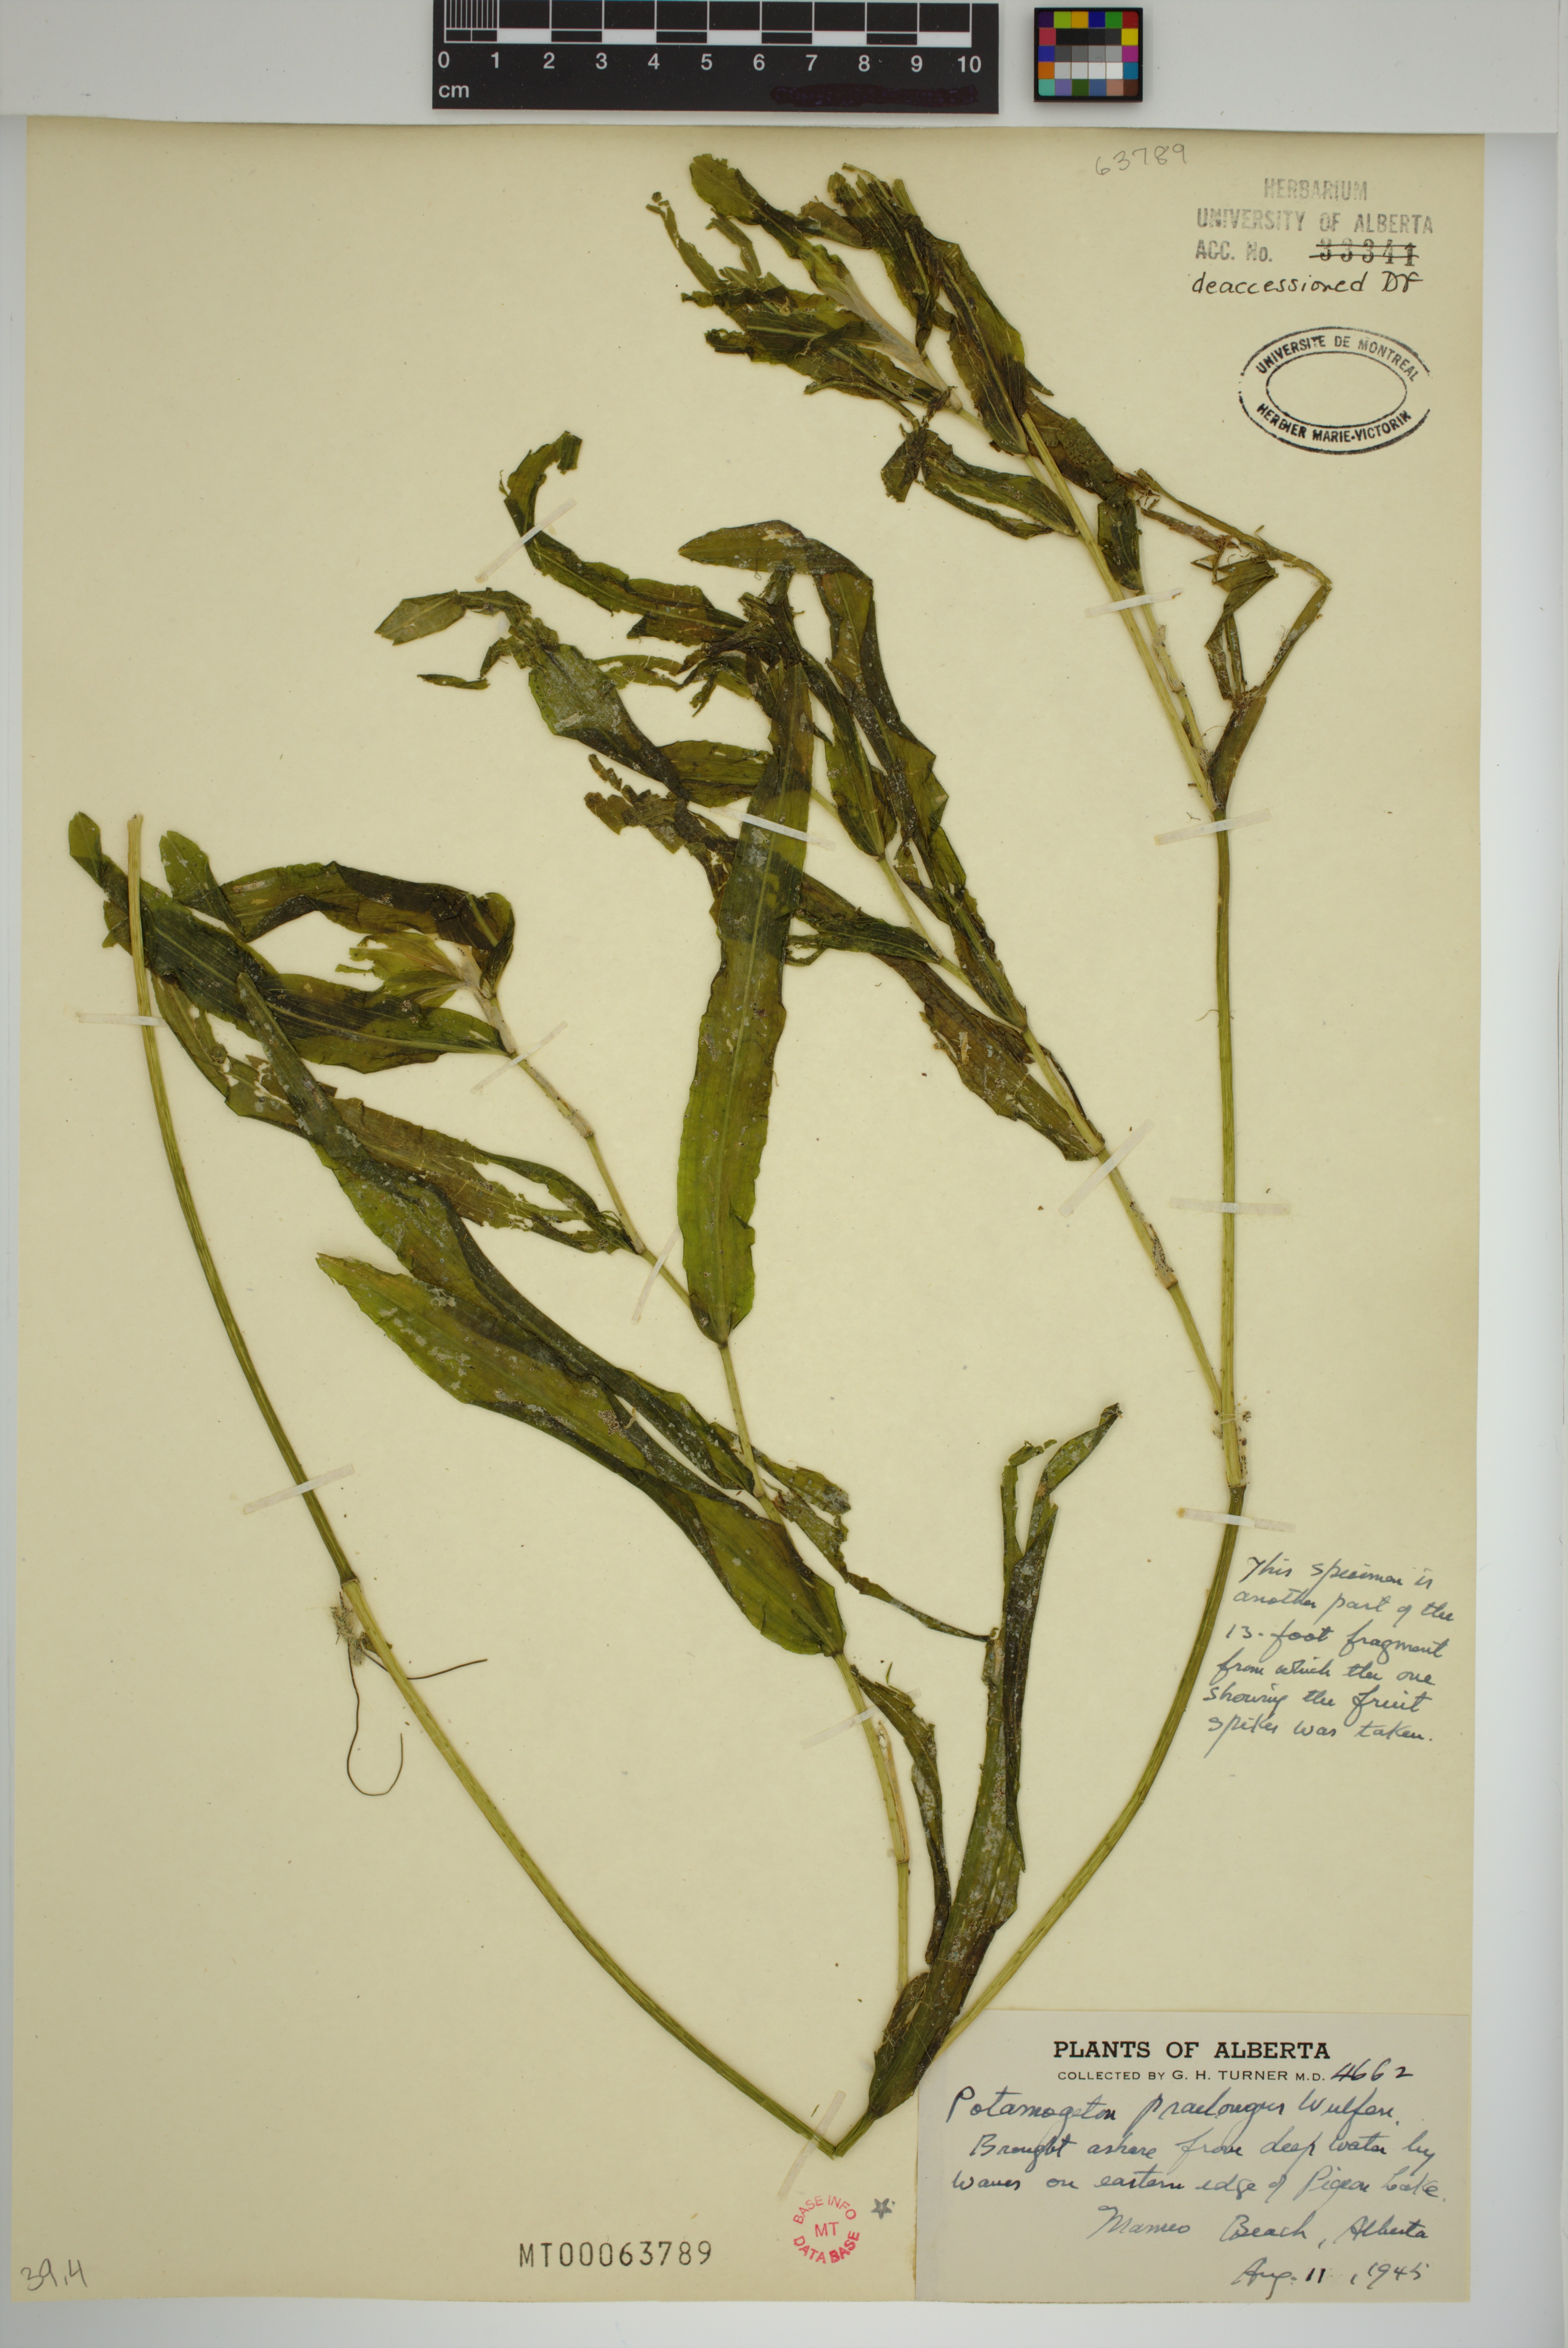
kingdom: Plantae
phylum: Tracheophyta
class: Liliopsida
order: Alismatales
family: Potamogetonaceae
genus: Potamogeton
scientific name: Potamogeton praelongus
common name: Long-stalked pondweed
